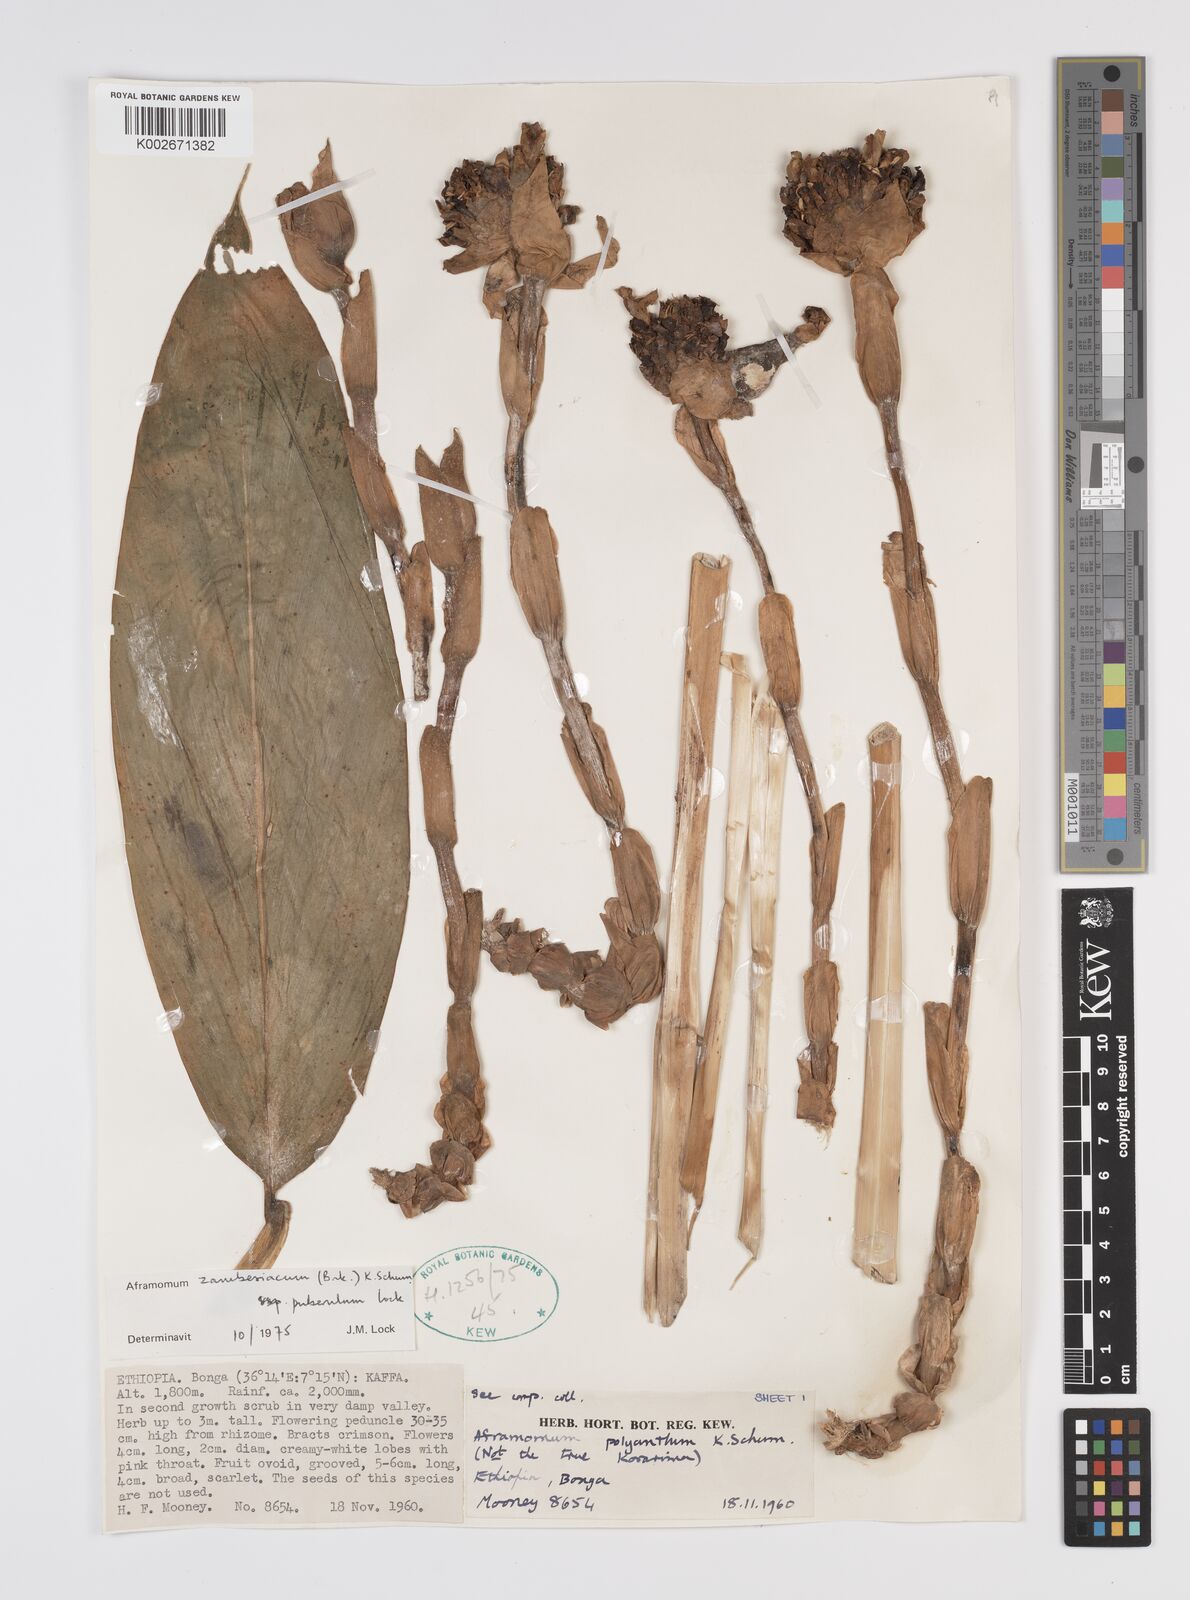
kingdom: Plantae
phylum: Tracheophyta
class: Liliopsida
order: Zingiberales
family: Zingiberaceae
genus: Aframomum
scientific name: Aframomum zambesiacum
